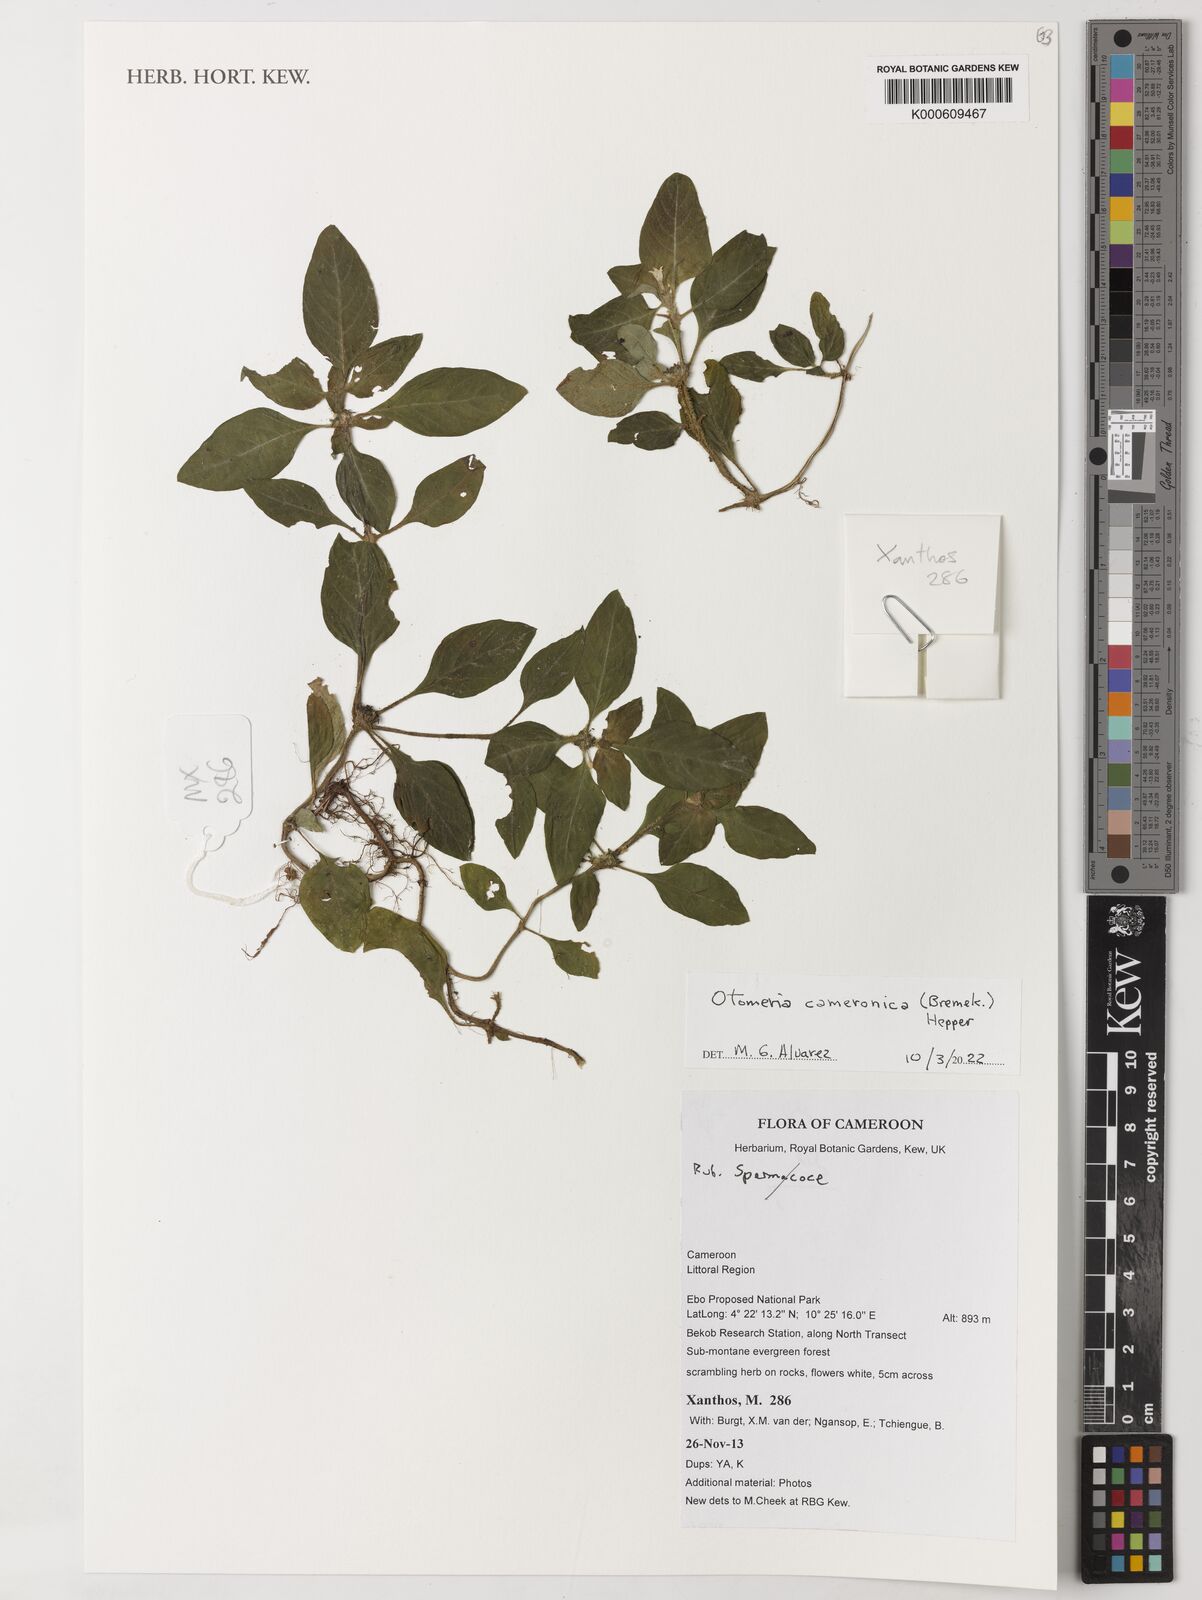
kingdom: Plantae
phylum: Tracheophyta
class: Magnoliopsida
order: Gentianales
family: Rubiaceae
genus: Otomeria
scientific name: Otomeria cameronica
